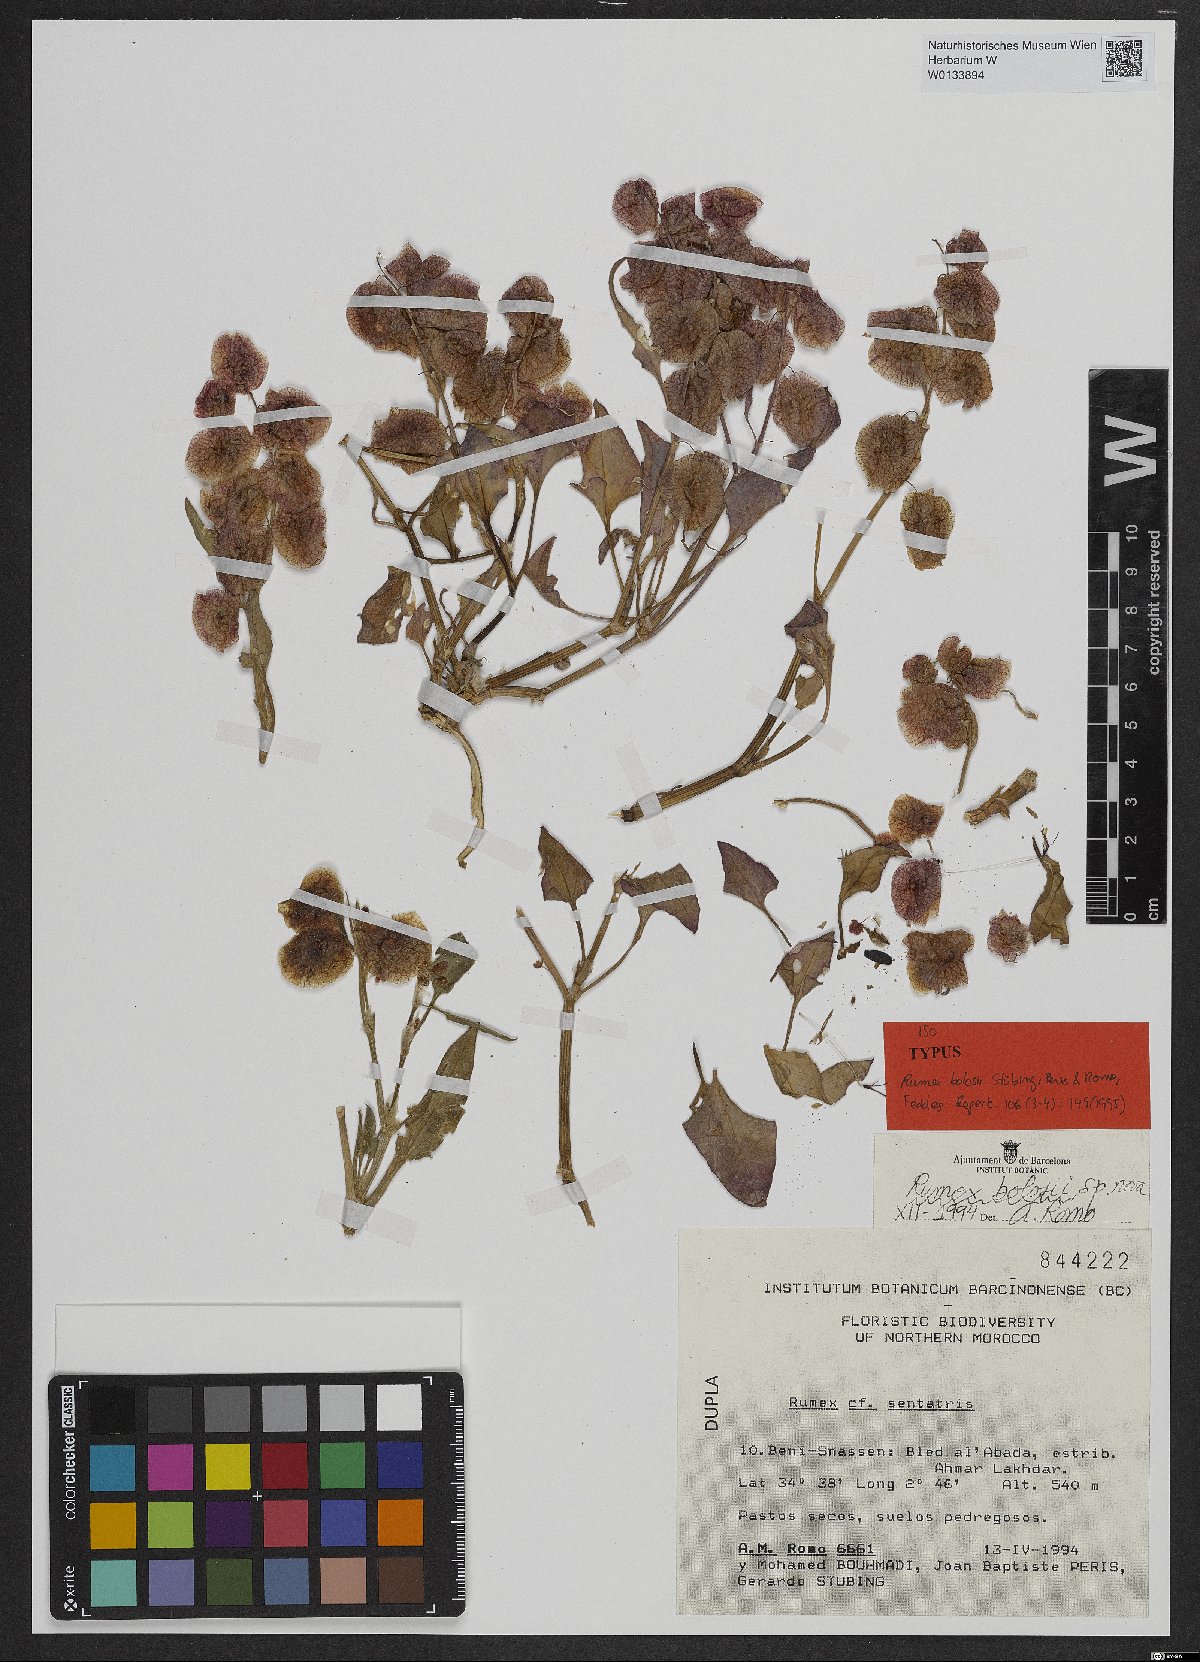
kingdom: Plantae
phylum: Tracheophyta
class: Magnoliopsida
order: Caryophyllales
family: Polygonaceae
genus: Rumex
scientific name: Rumex vesicarius
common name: Bladder dock
